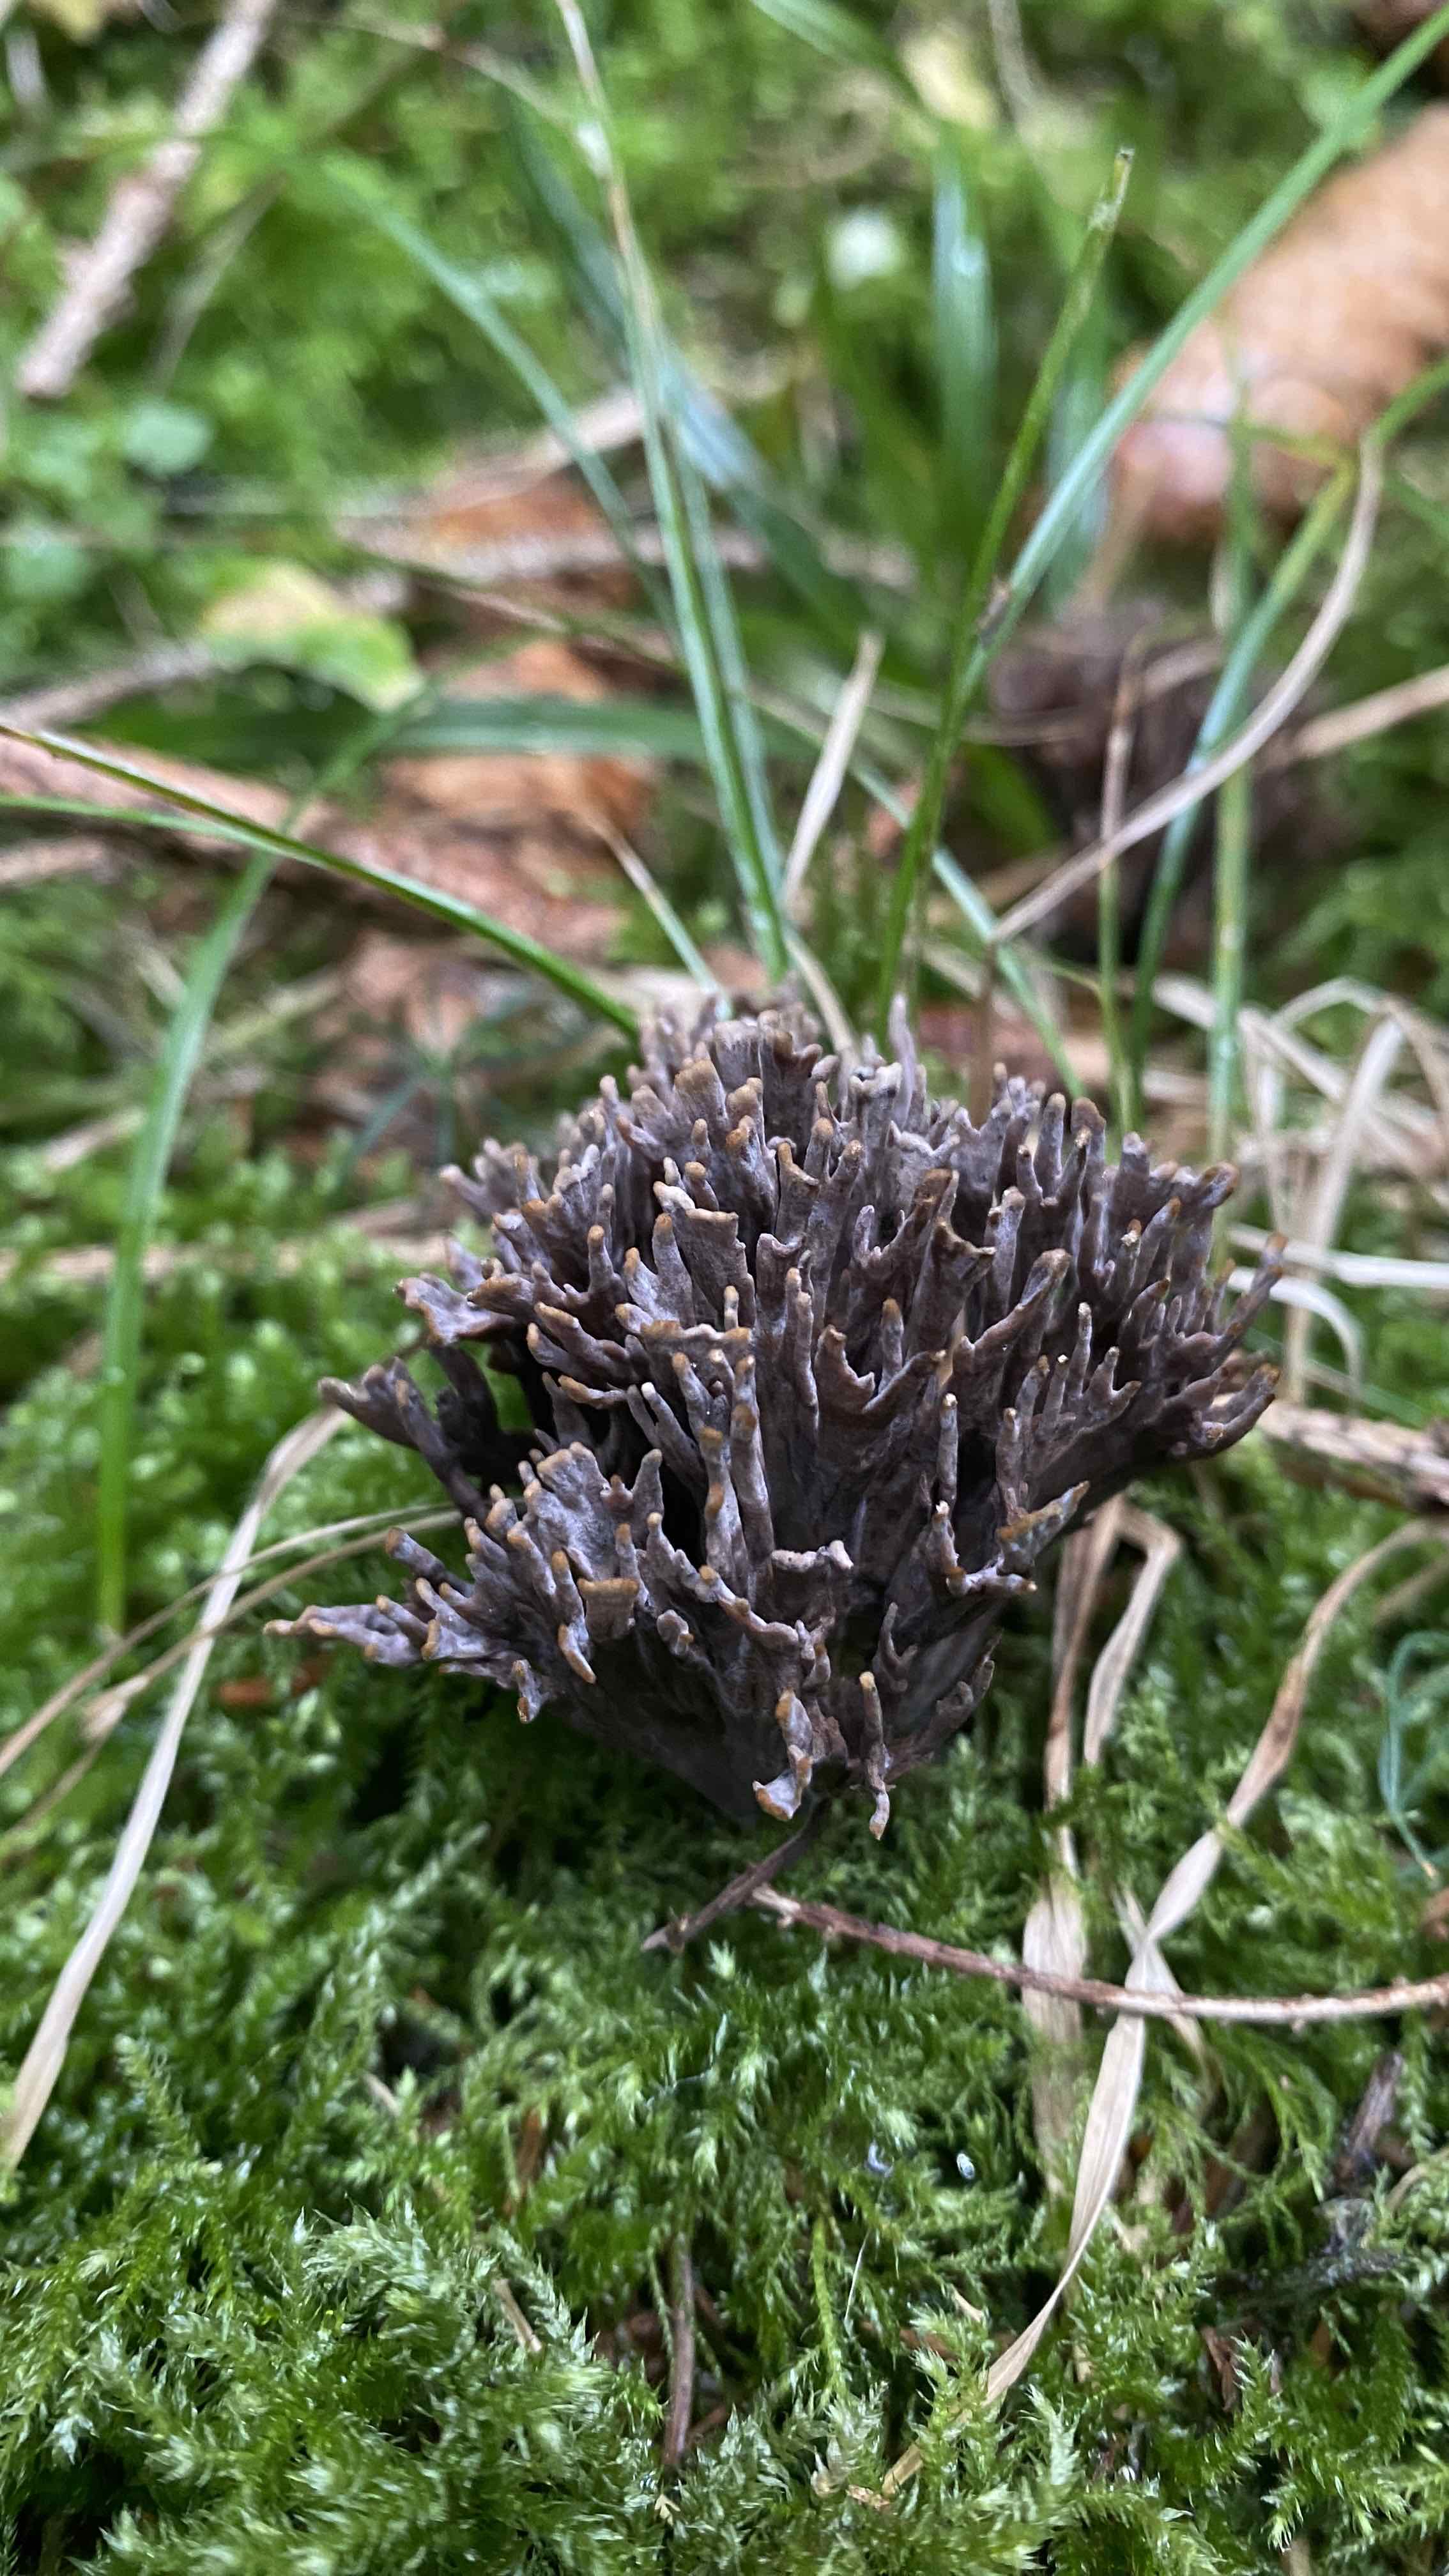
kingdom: Fungi
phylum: Basidiomycota
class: Agaricomycetes
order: Thelephorales
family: Thelephoraceae
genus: Thelephora
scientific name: Thelephora palmata
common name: grenet frynsesvamp
